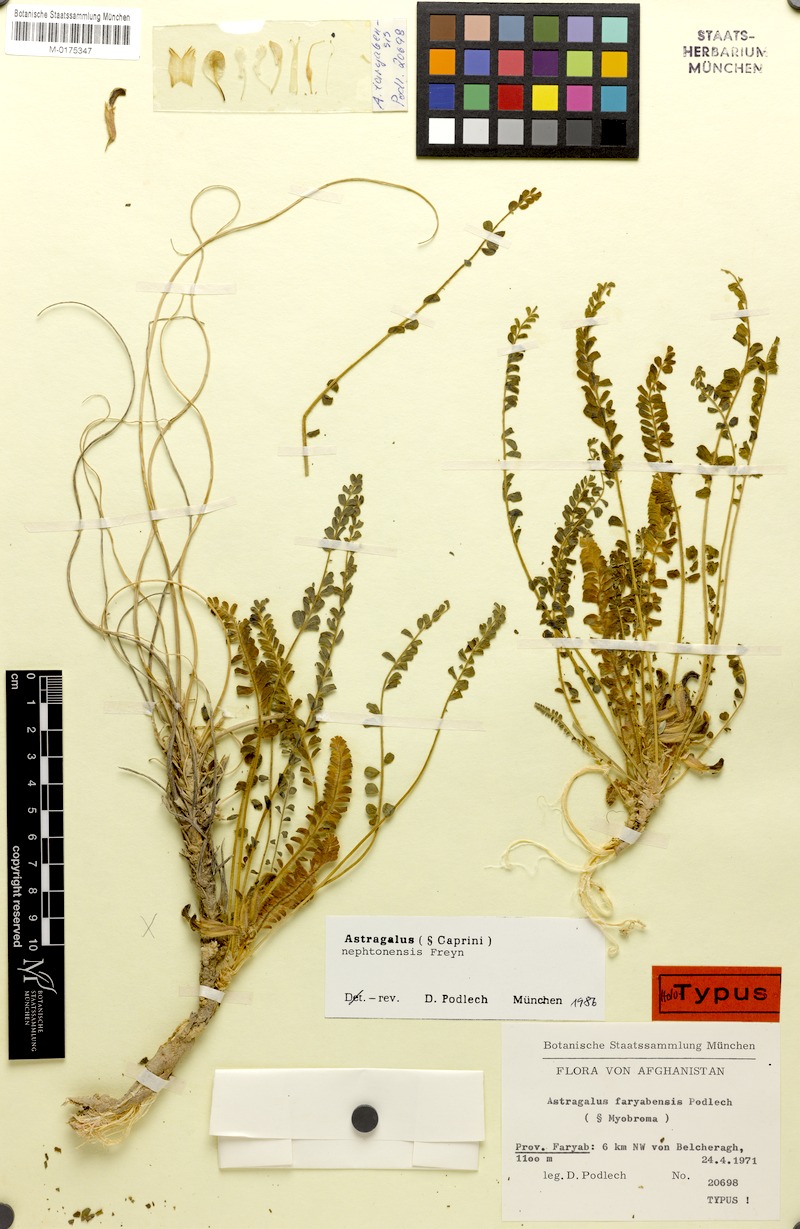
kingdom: Plantae
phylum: Tracheophyta
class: Magnoliopsida
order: Fabales
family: Fabaceae
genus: Astragalus
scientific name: Astragalus nephtonensis
